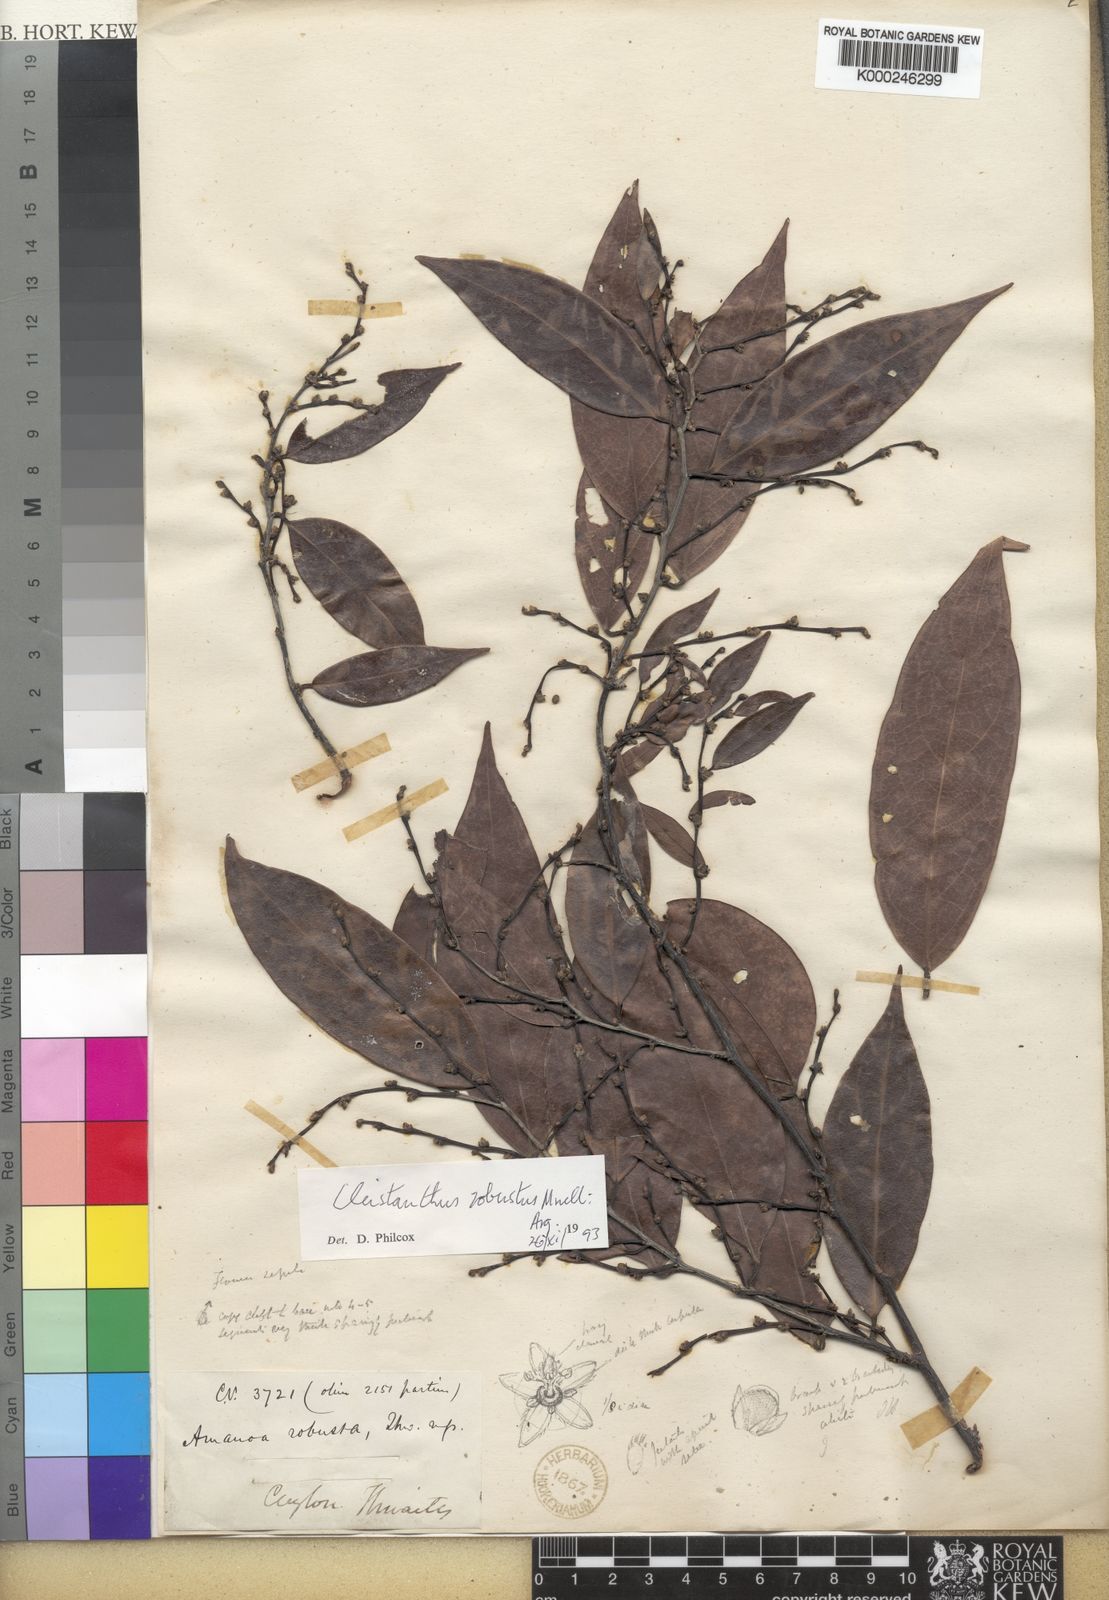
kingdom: Plantae
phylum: Tracheophyta
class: Magnoliopsida
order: Malpighiales
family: Phyllanthaceae
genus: Cleistanthus
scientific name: Cleistanthus
